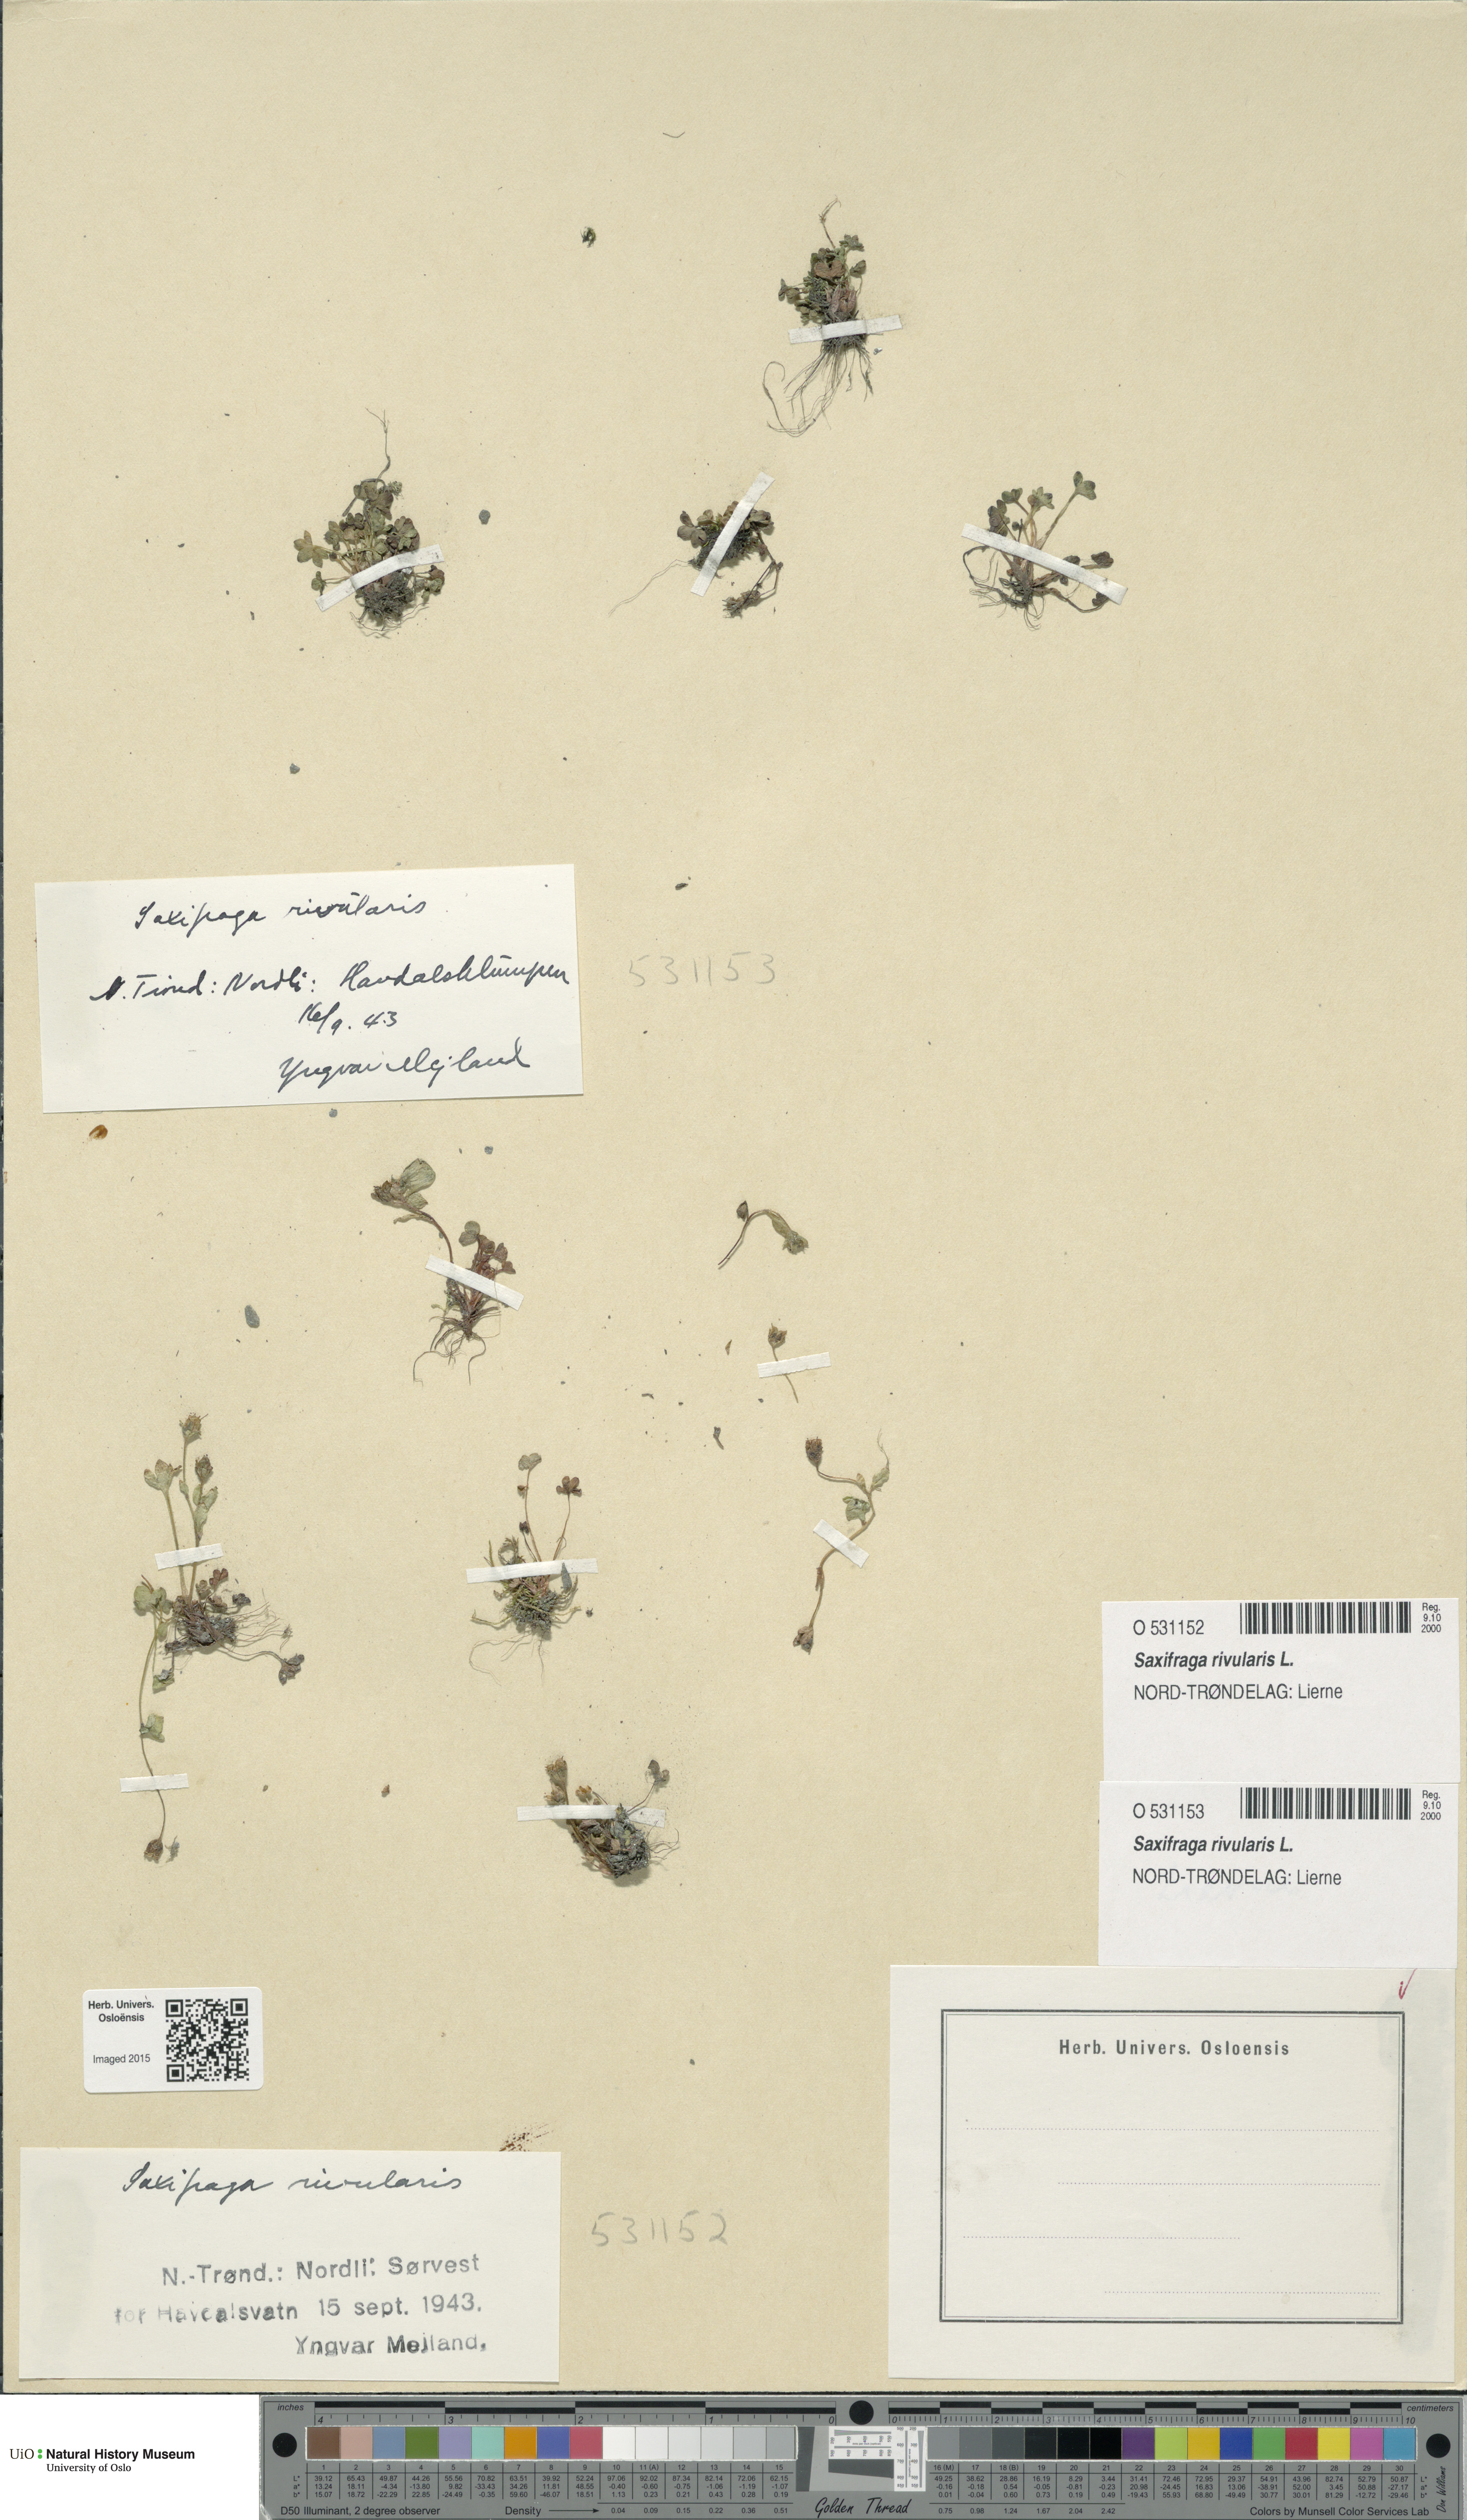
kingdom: Plantae
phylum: Tracheophyta
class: Magnoliopsida
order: Saxifragales
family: Saxifragaceae
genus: Saxifraga
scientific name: Saxifraga rivularis
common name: Highland saxifrage
